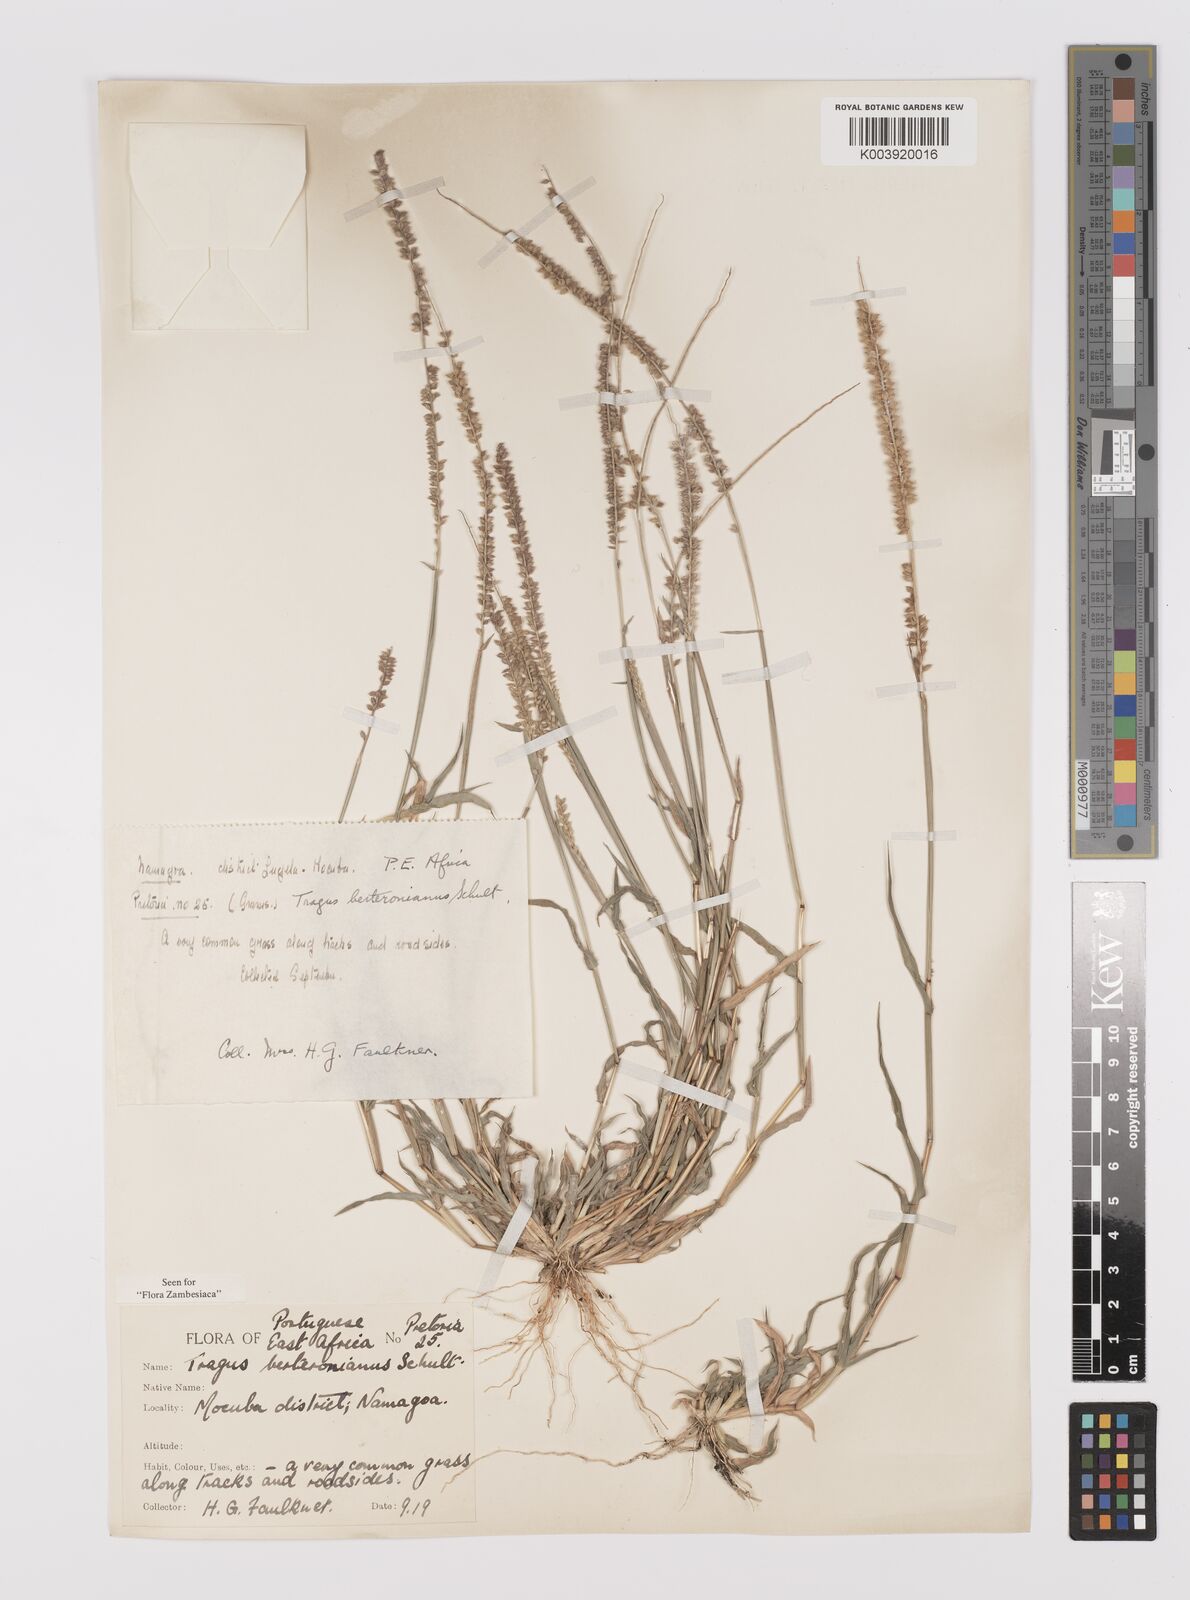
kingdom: Plantae
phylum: Tracheophyta
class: Liliopsida
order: Poales
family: Poaceae
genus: Tragus
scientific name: Tragus berteronianus
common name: African bur-grass
